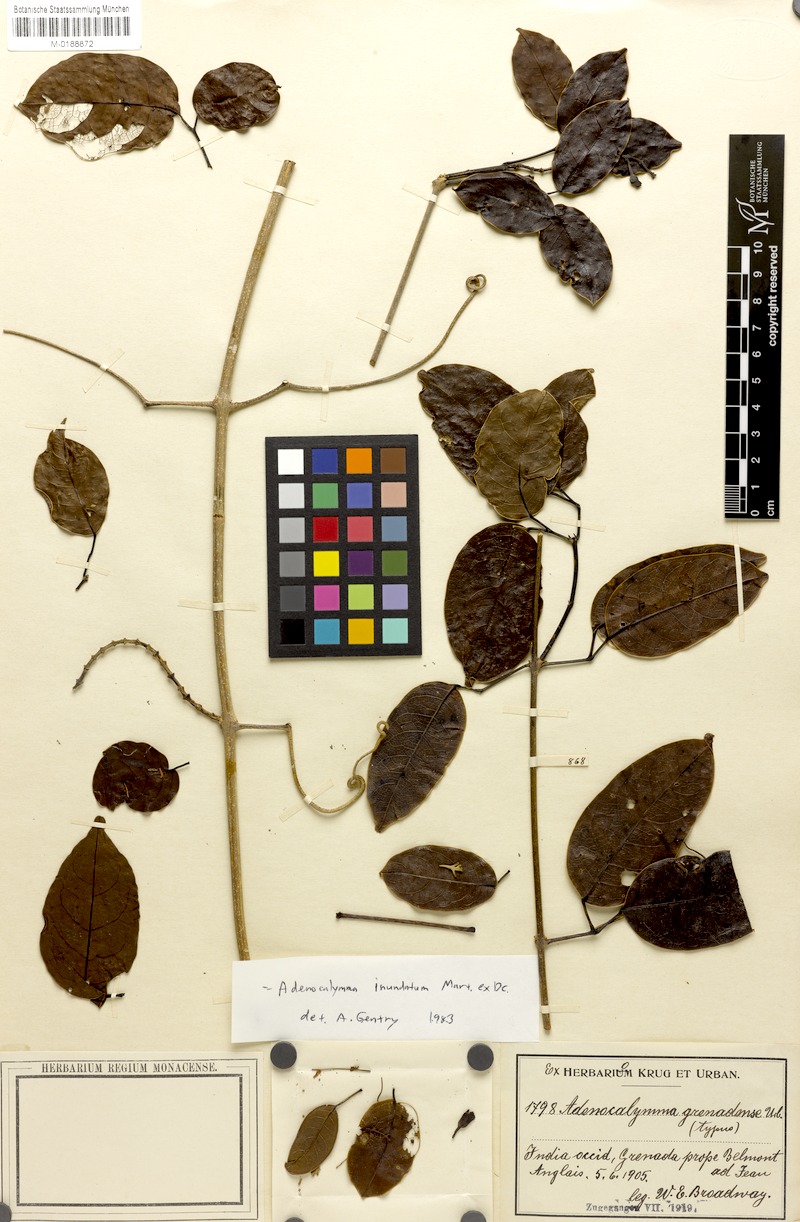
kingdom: Plantae
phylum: Tracheophyta
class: Magnoliopsida
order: Lamiales
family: Bignoniaceae
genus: Adenocalymma
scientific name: Adenocalymma inundatum
